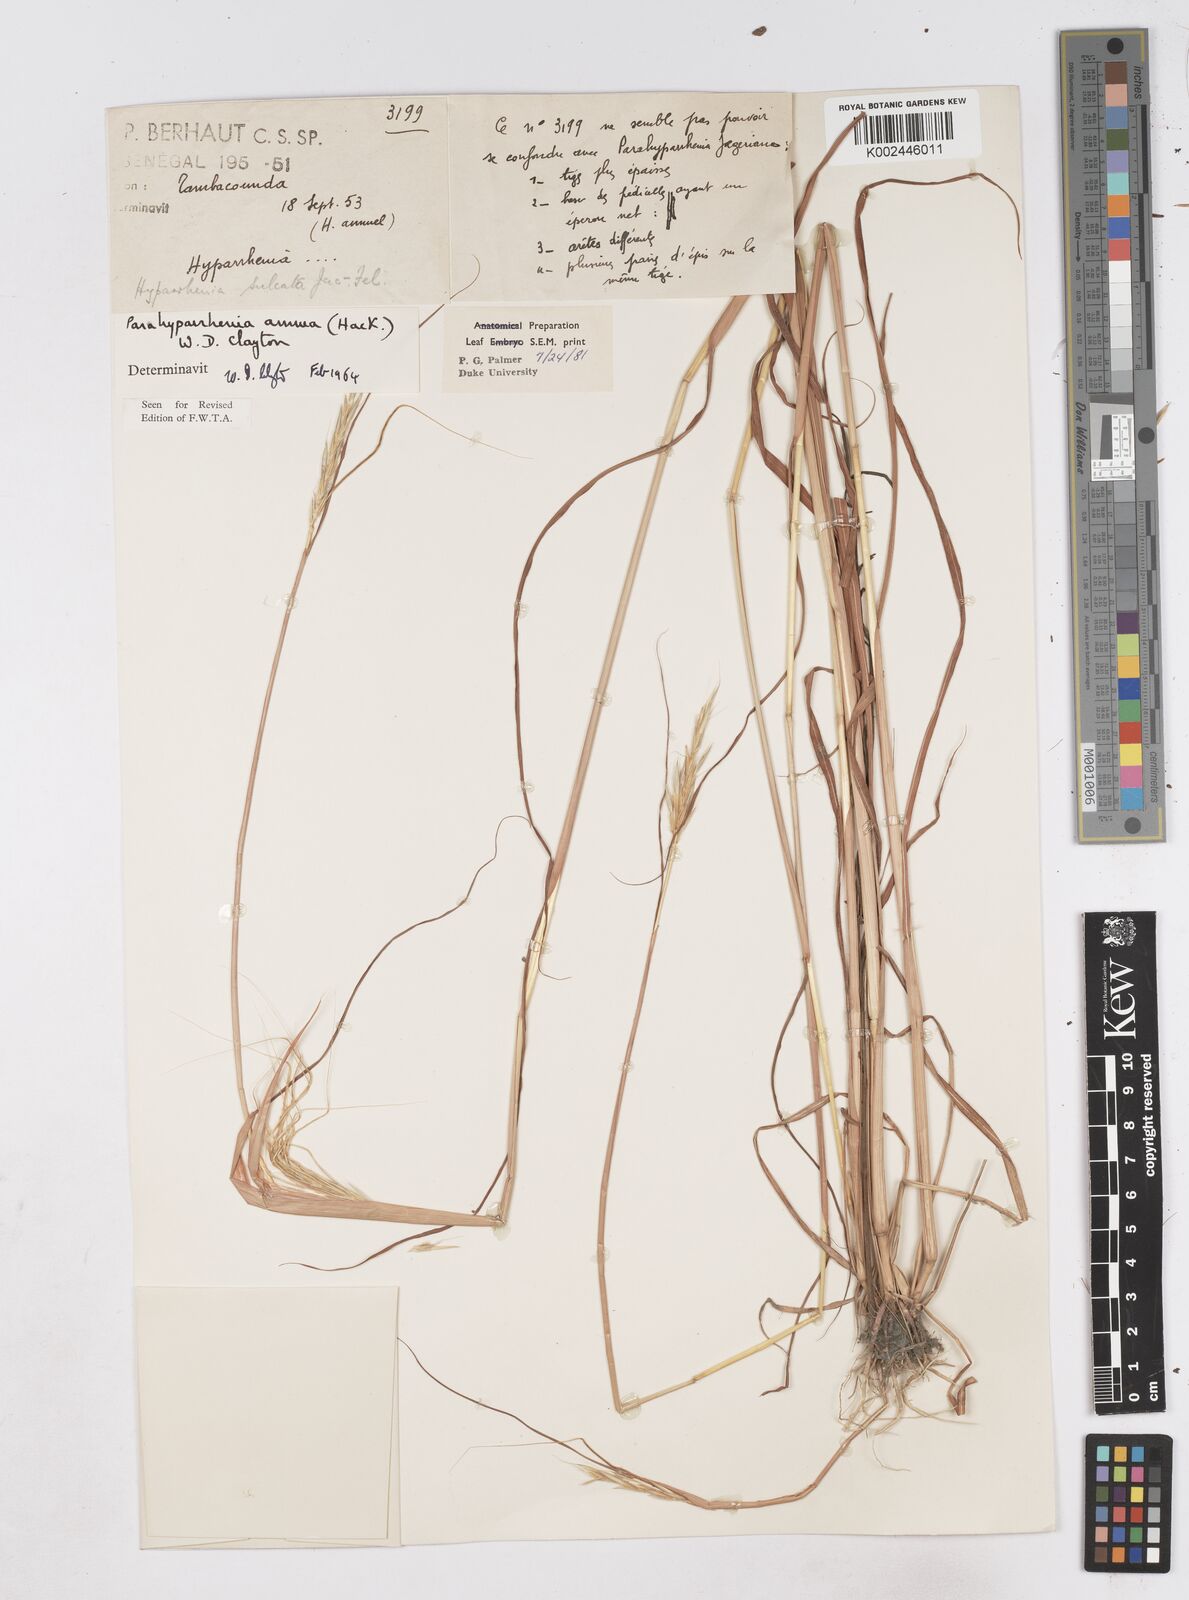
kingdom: Plantae
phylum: Tracheophyta
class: Liliopsida
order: Poales
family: Poaceae
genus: Parahyparrhenia
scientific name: Parahyparrhenia annua
